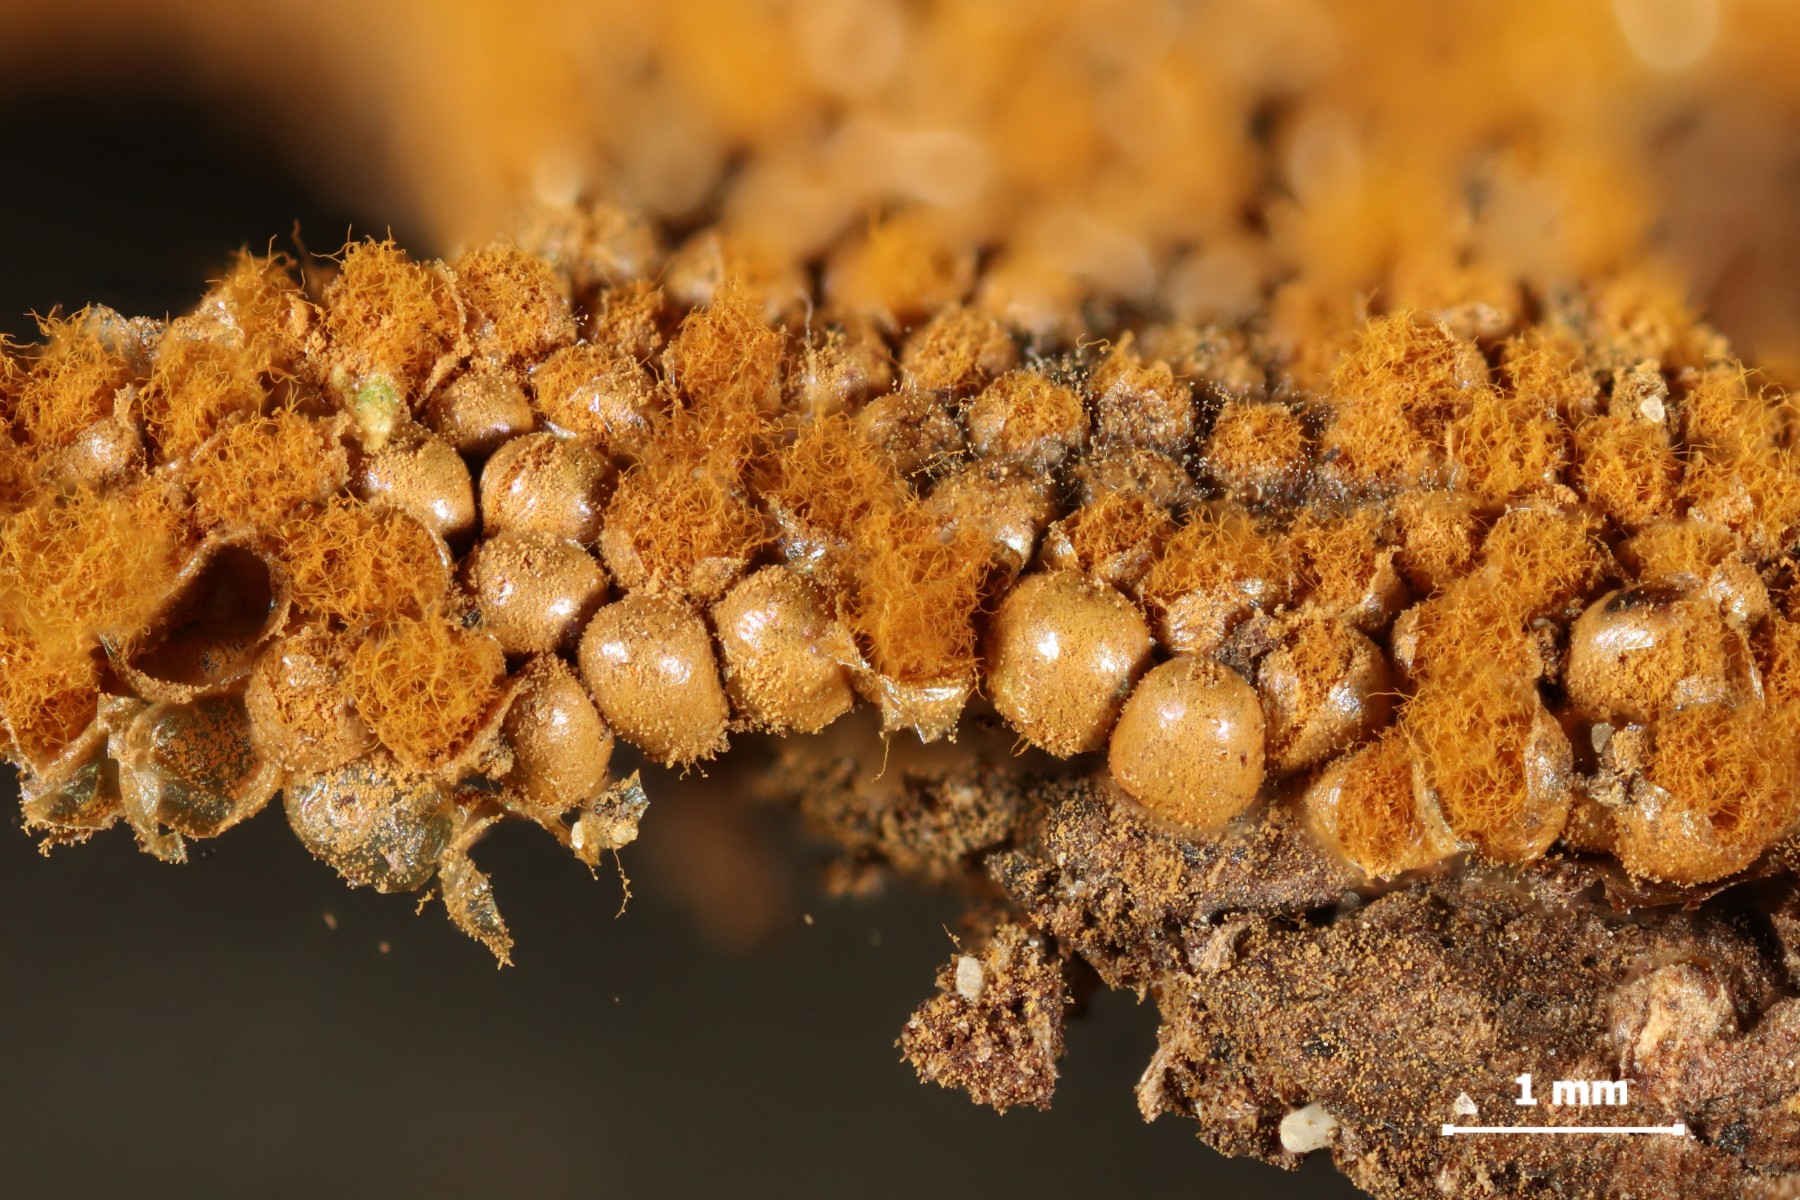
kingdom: Protozoa
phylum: Mycetozoa
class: Myxomycetes
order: Trichiales
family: Trichiaceae
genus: Oligonema
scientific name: Oligonema persimile
